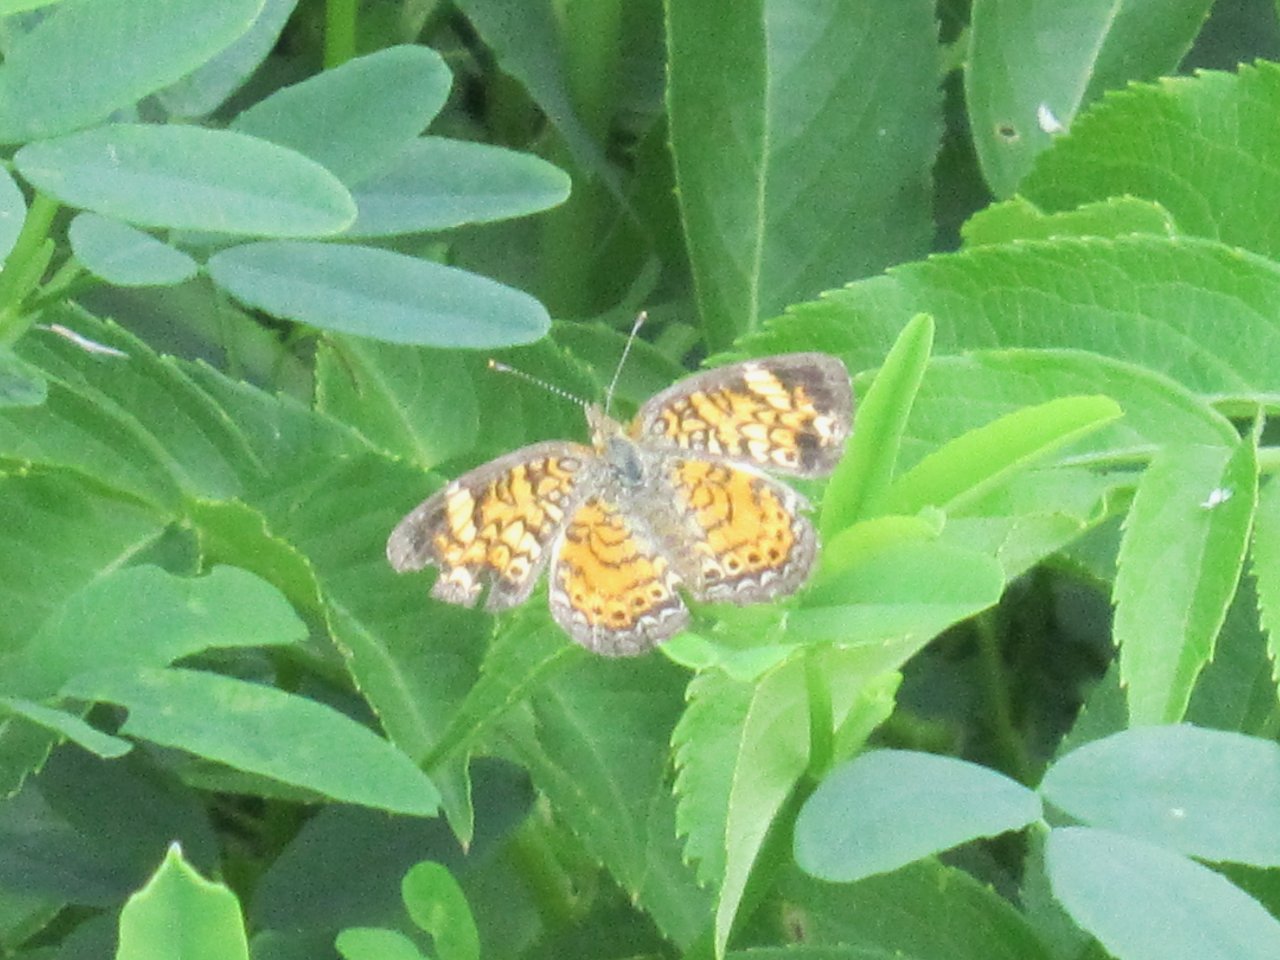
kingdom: Animalia
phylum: Arthropoda
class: Insecta
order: Lepidoptera
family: Nymphalidae
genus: Phyciodes
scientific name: Phyciodes tharos
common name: Pearl Crescent
